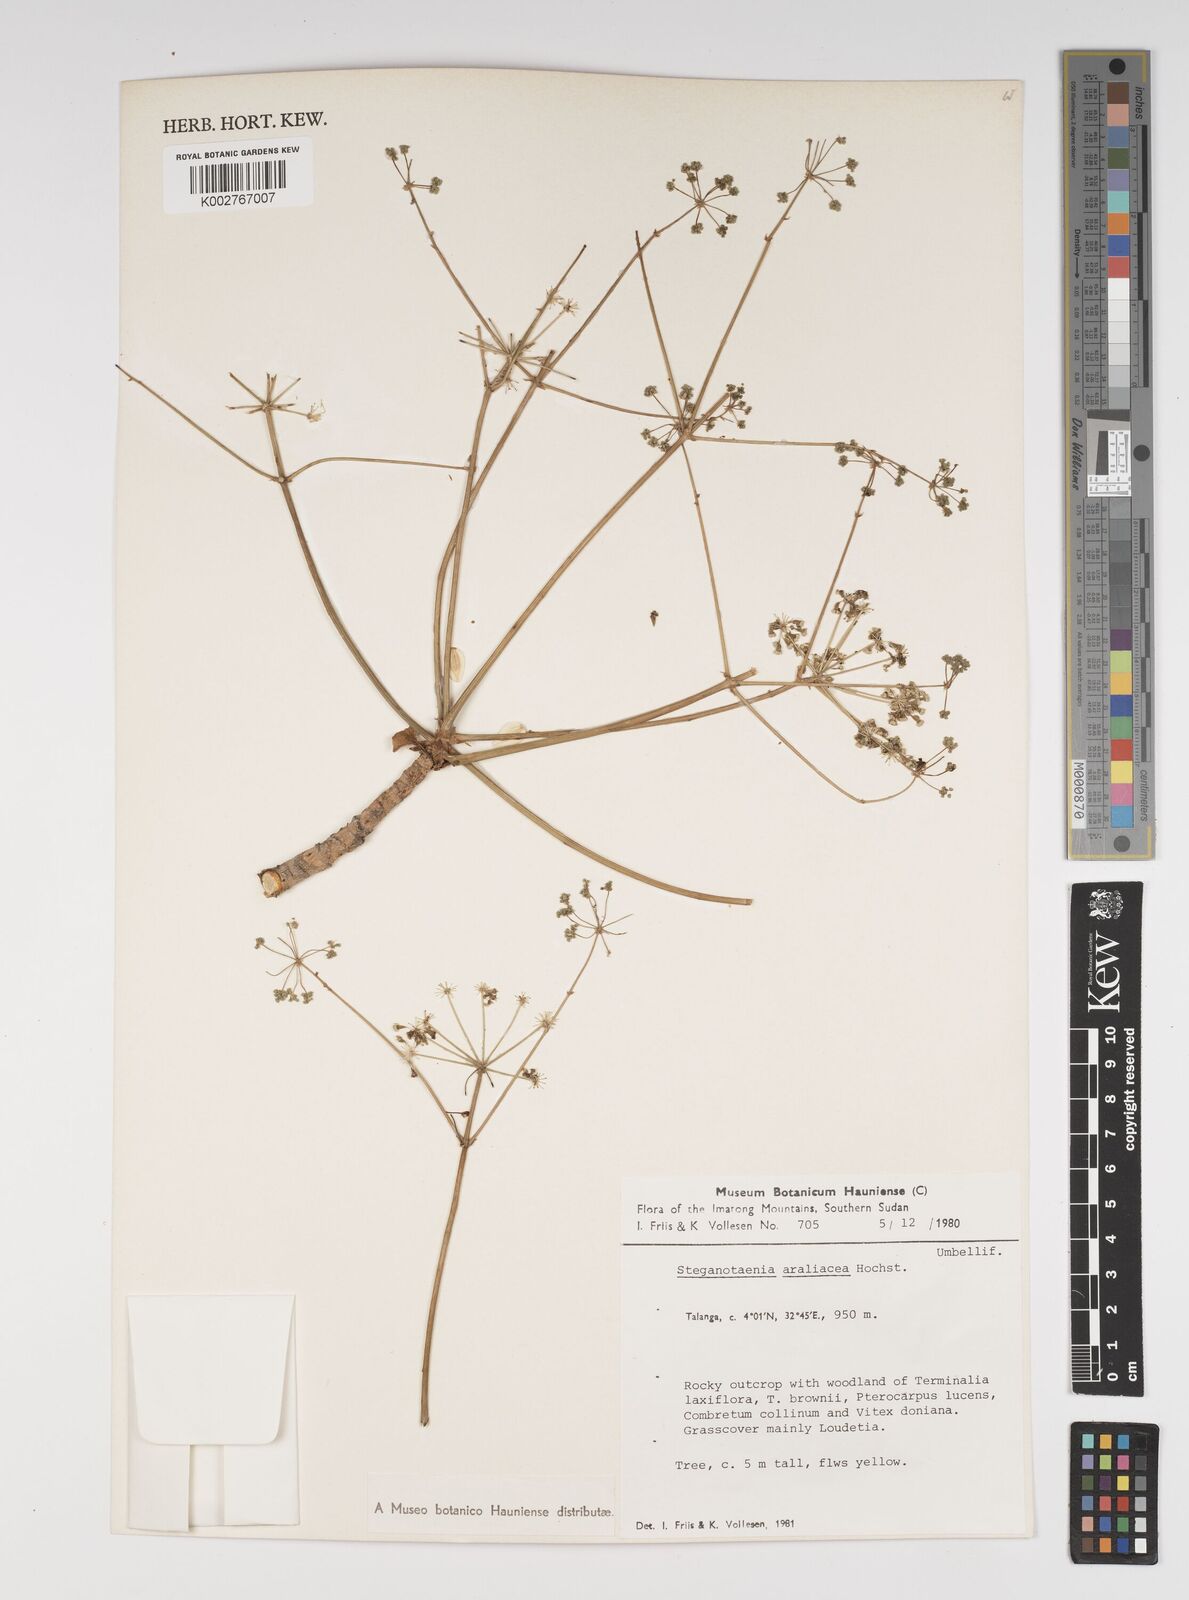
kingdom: Plantae
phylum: Tracheophyta
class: Magnoliopsida
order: Apiales
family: Apiaceae
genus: Steganotaenia
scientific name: Steganotaenia araliacea
